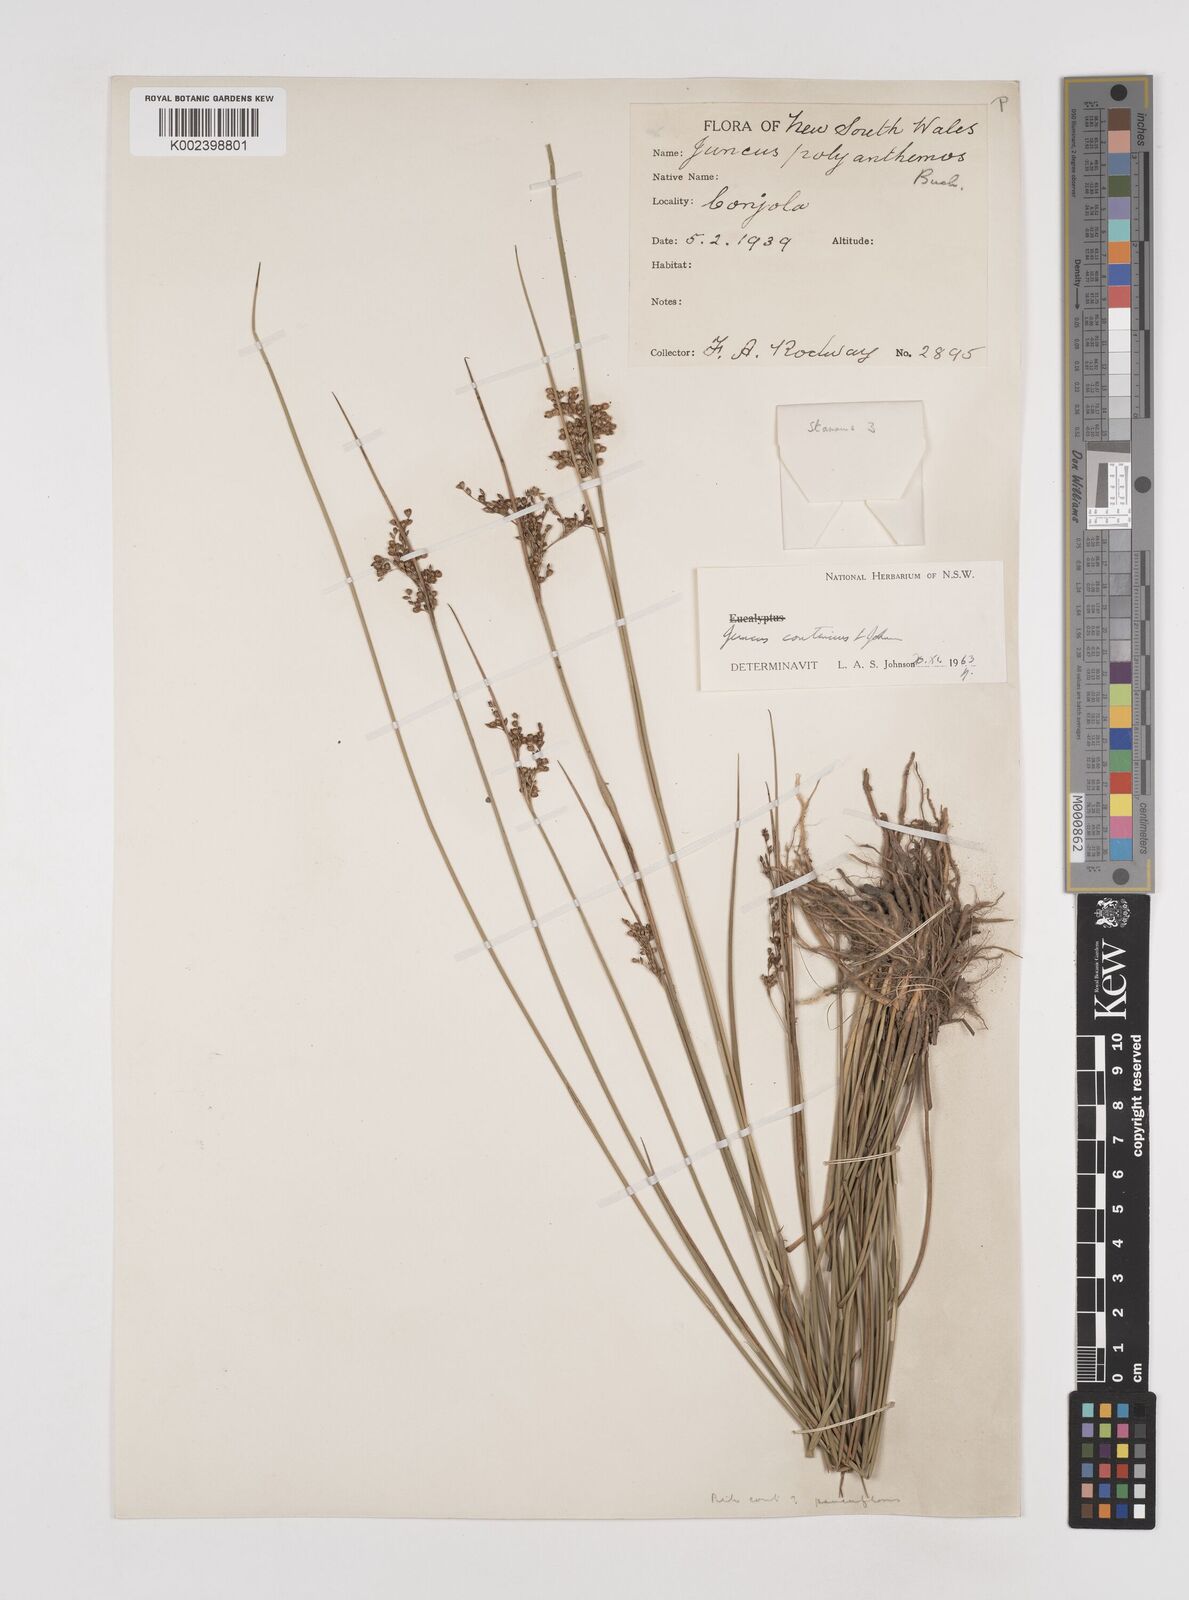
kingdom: Plantae
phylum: Tracheophyta
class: Liliopsida
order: Poales
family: Juncaceae
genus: Juncus
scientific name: Juncus continuus
